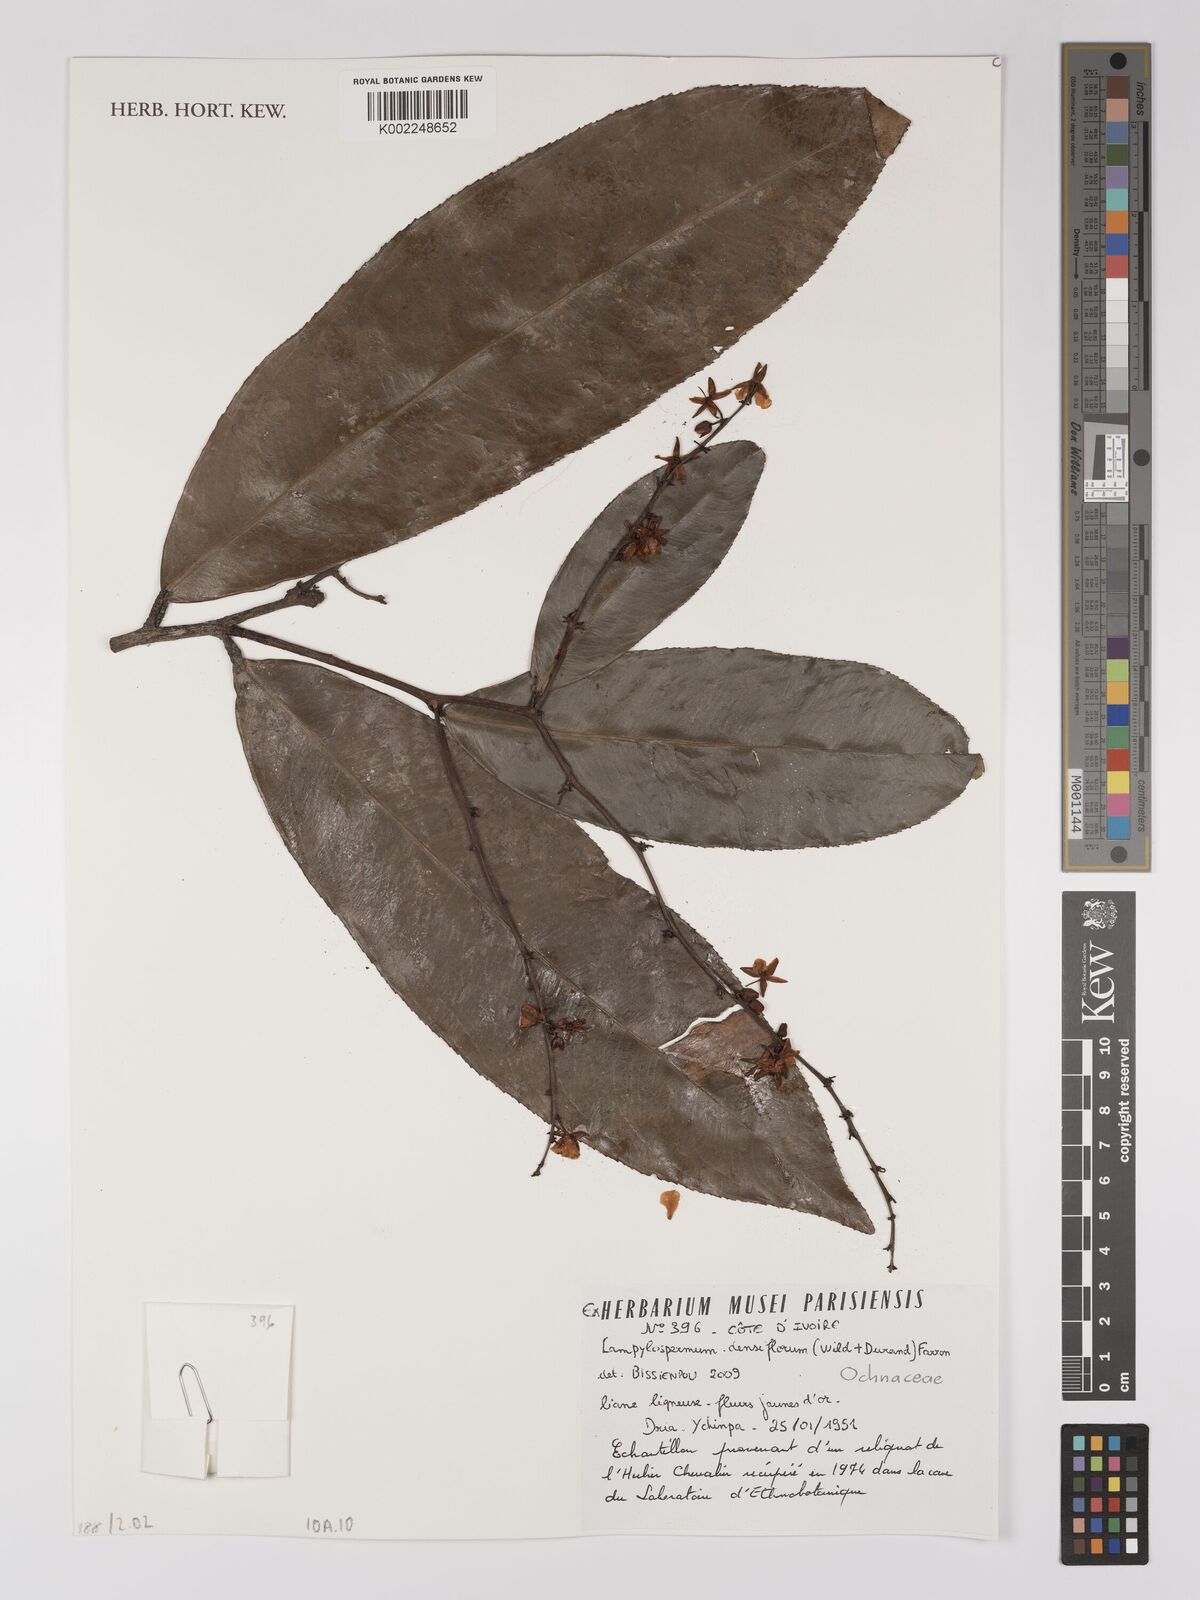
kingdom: Plantae
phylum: Tracheophyta
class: Magnoliopsida
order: Malpighiales
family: Ochnaceae
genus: Gomphia
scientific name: Gomphia densiflora
